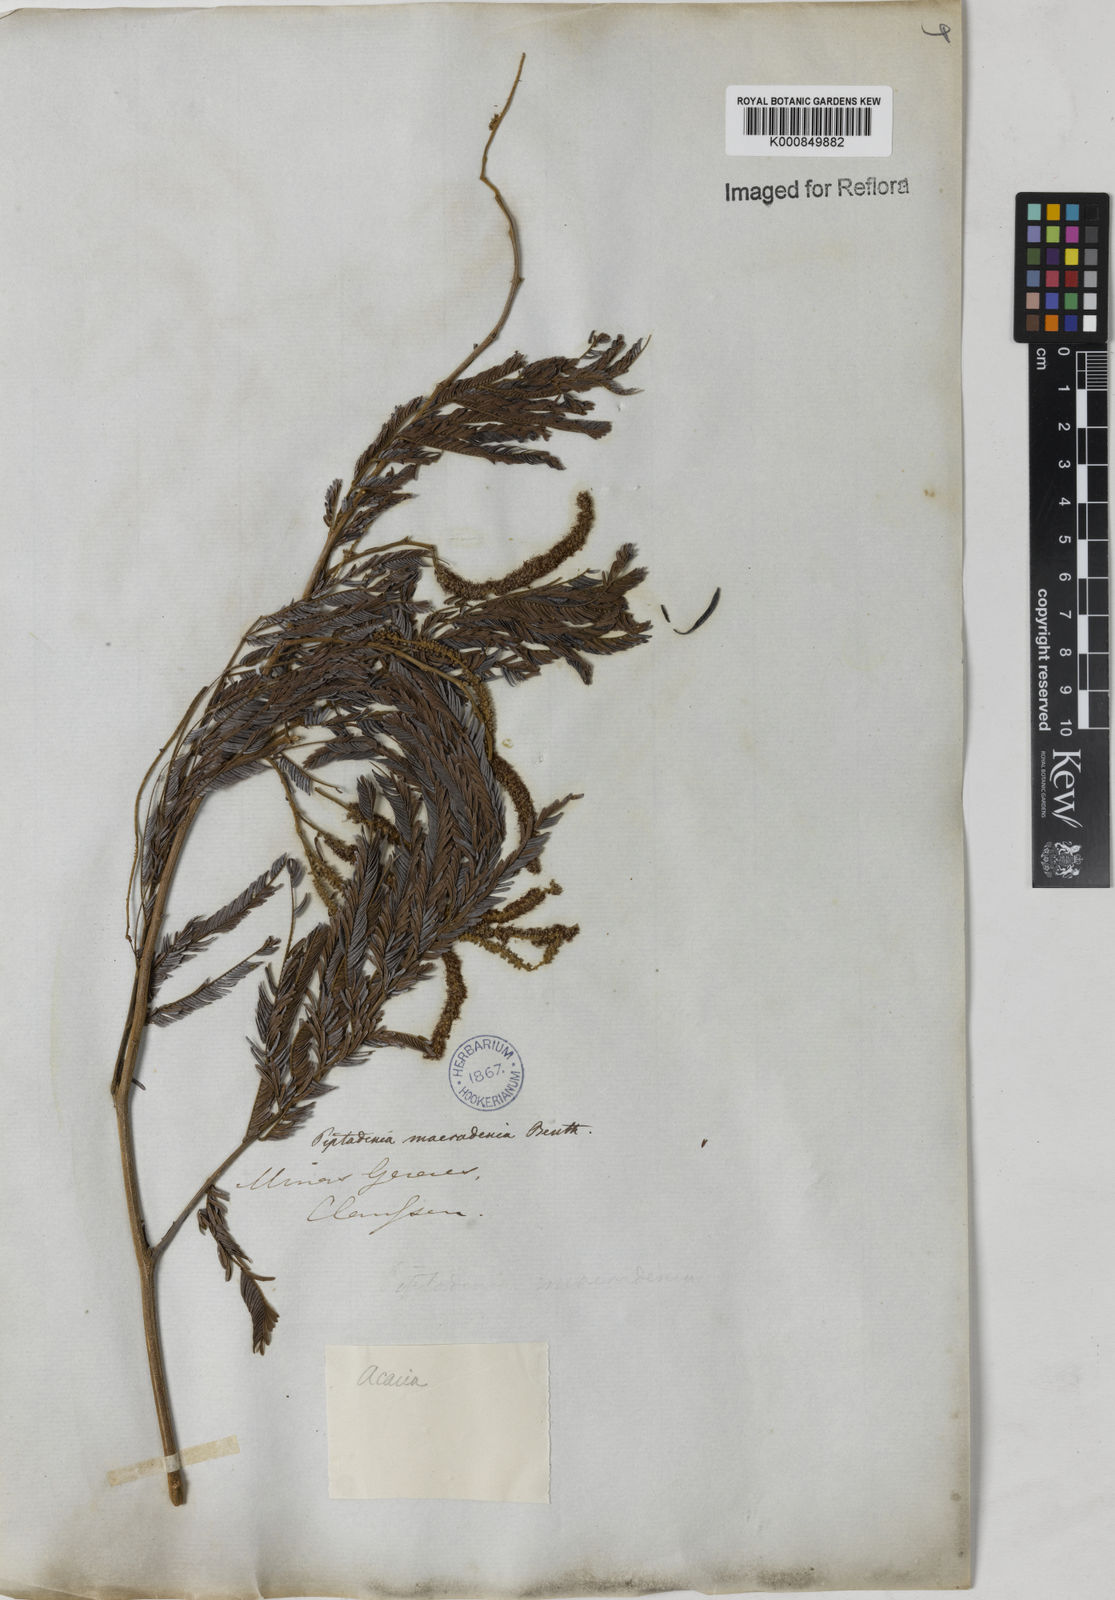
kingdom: Plantae
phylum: Tracheophyta
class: Magnoliopsida
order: Fabales
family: Fabaceae
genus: Piptadenia
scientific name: Piptadenia macradenia
